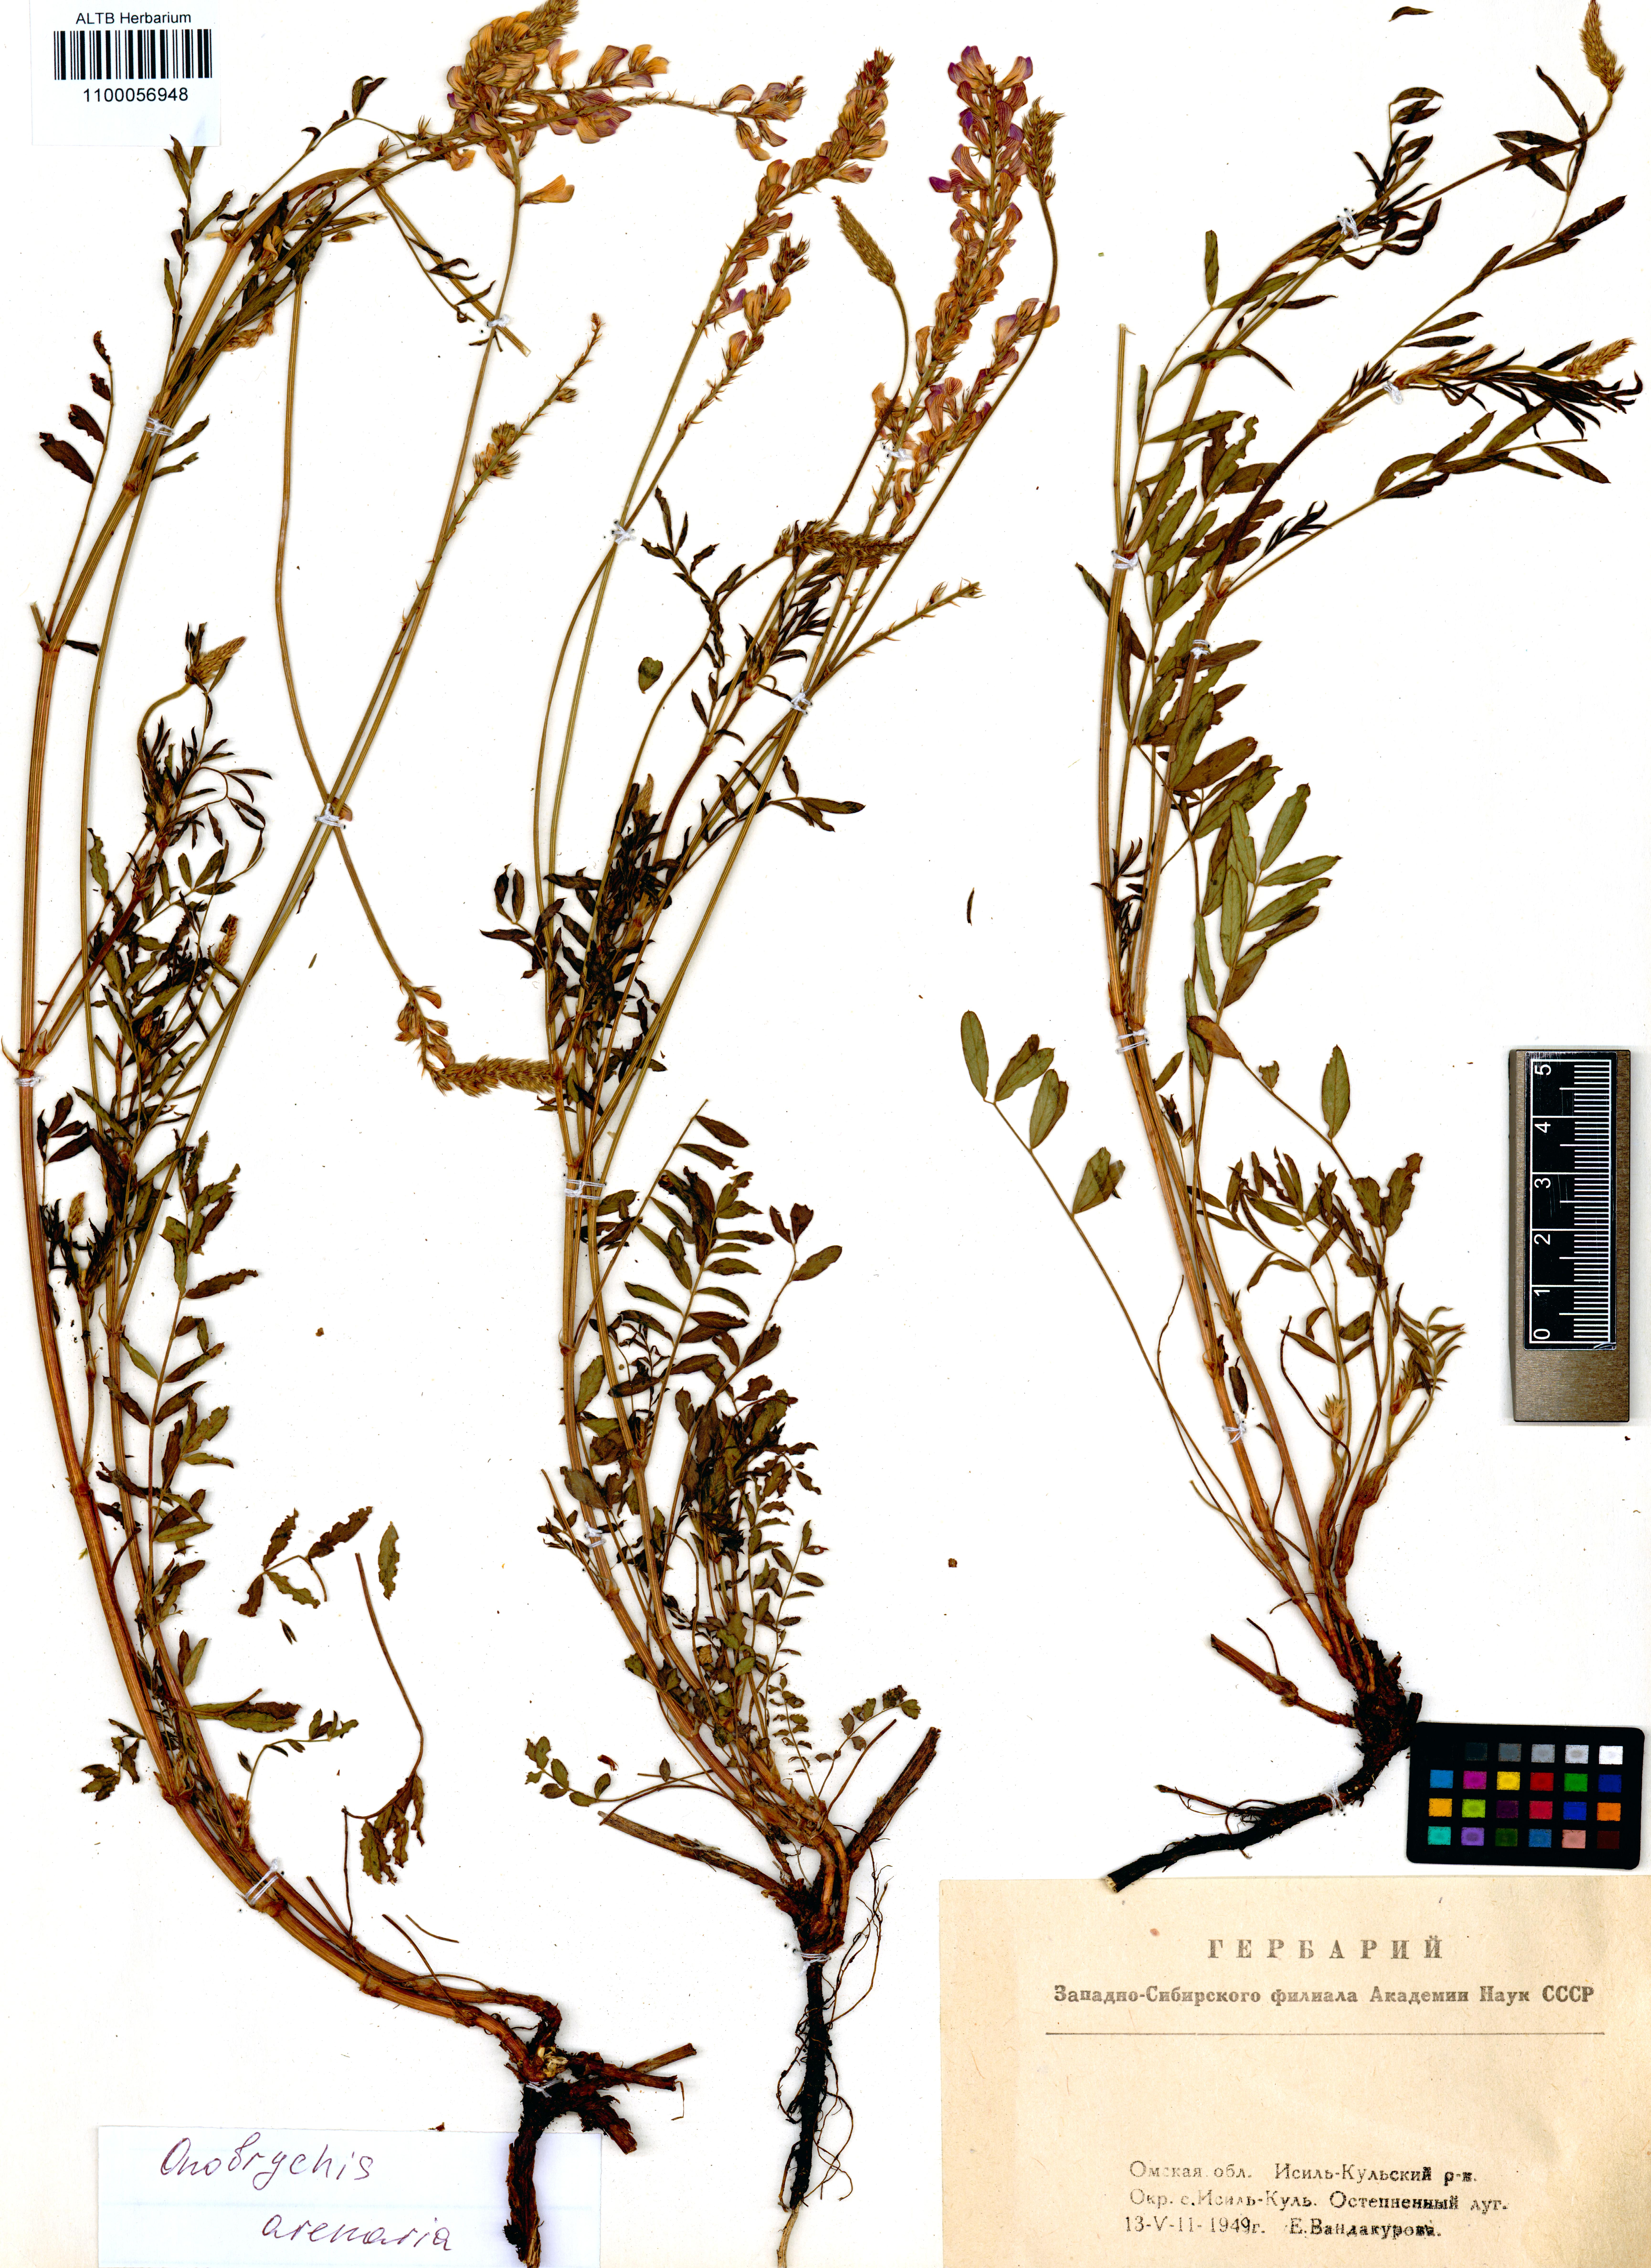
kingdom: Plantae
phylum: Tracheophyta
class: Magnoliopsida
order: Fabales
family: Fabaceae
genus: Onobrychis
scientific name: Onobrychis arenaria
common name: Sand esparcet
